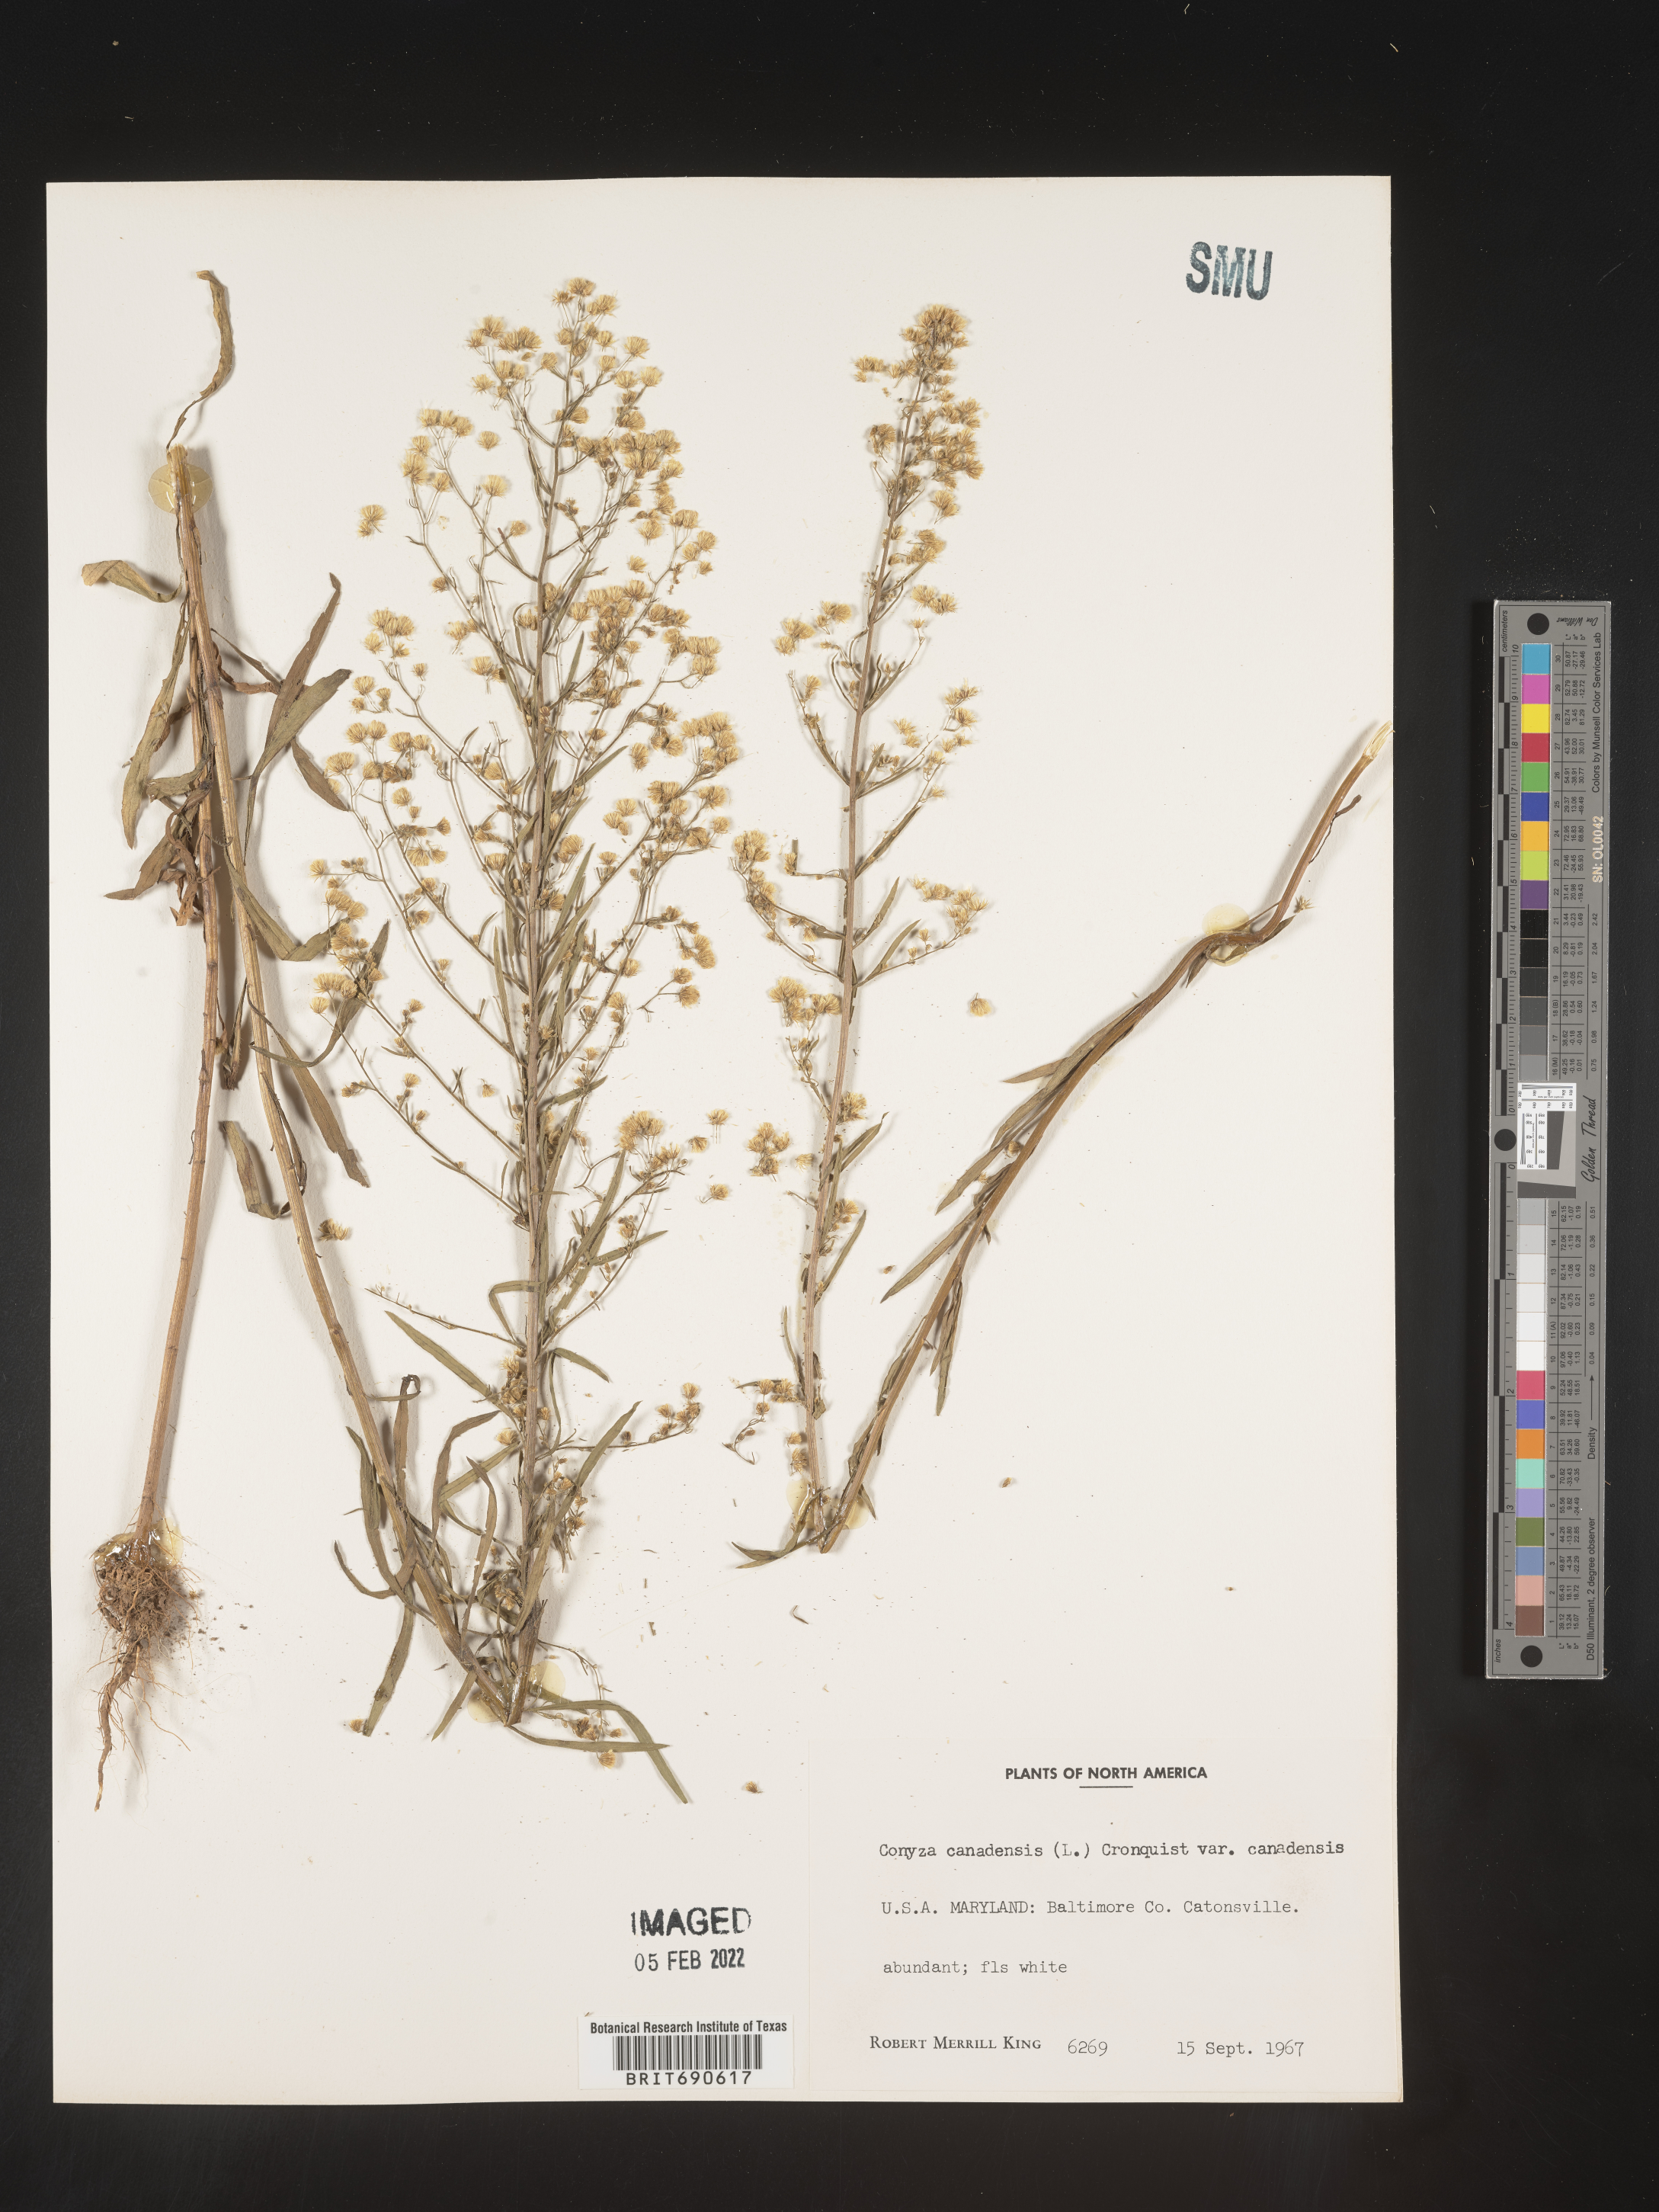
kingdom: Plantae
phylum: Tracheophyta
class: Magnoliopsida
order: Asterales
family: Asteraceae
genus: Erigeron
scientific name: Erigeron canadensis
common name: Canadian fleabane
